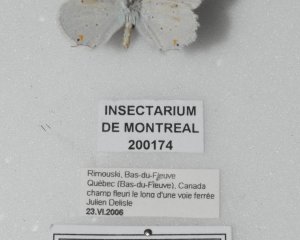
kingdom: Animalia
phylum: Arthropoda
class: Insecta
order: Lepidoptera
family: Lycaenidae
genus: Elkalyce
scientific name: Elkalyce amyntula
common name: Western Tailed-Blue
